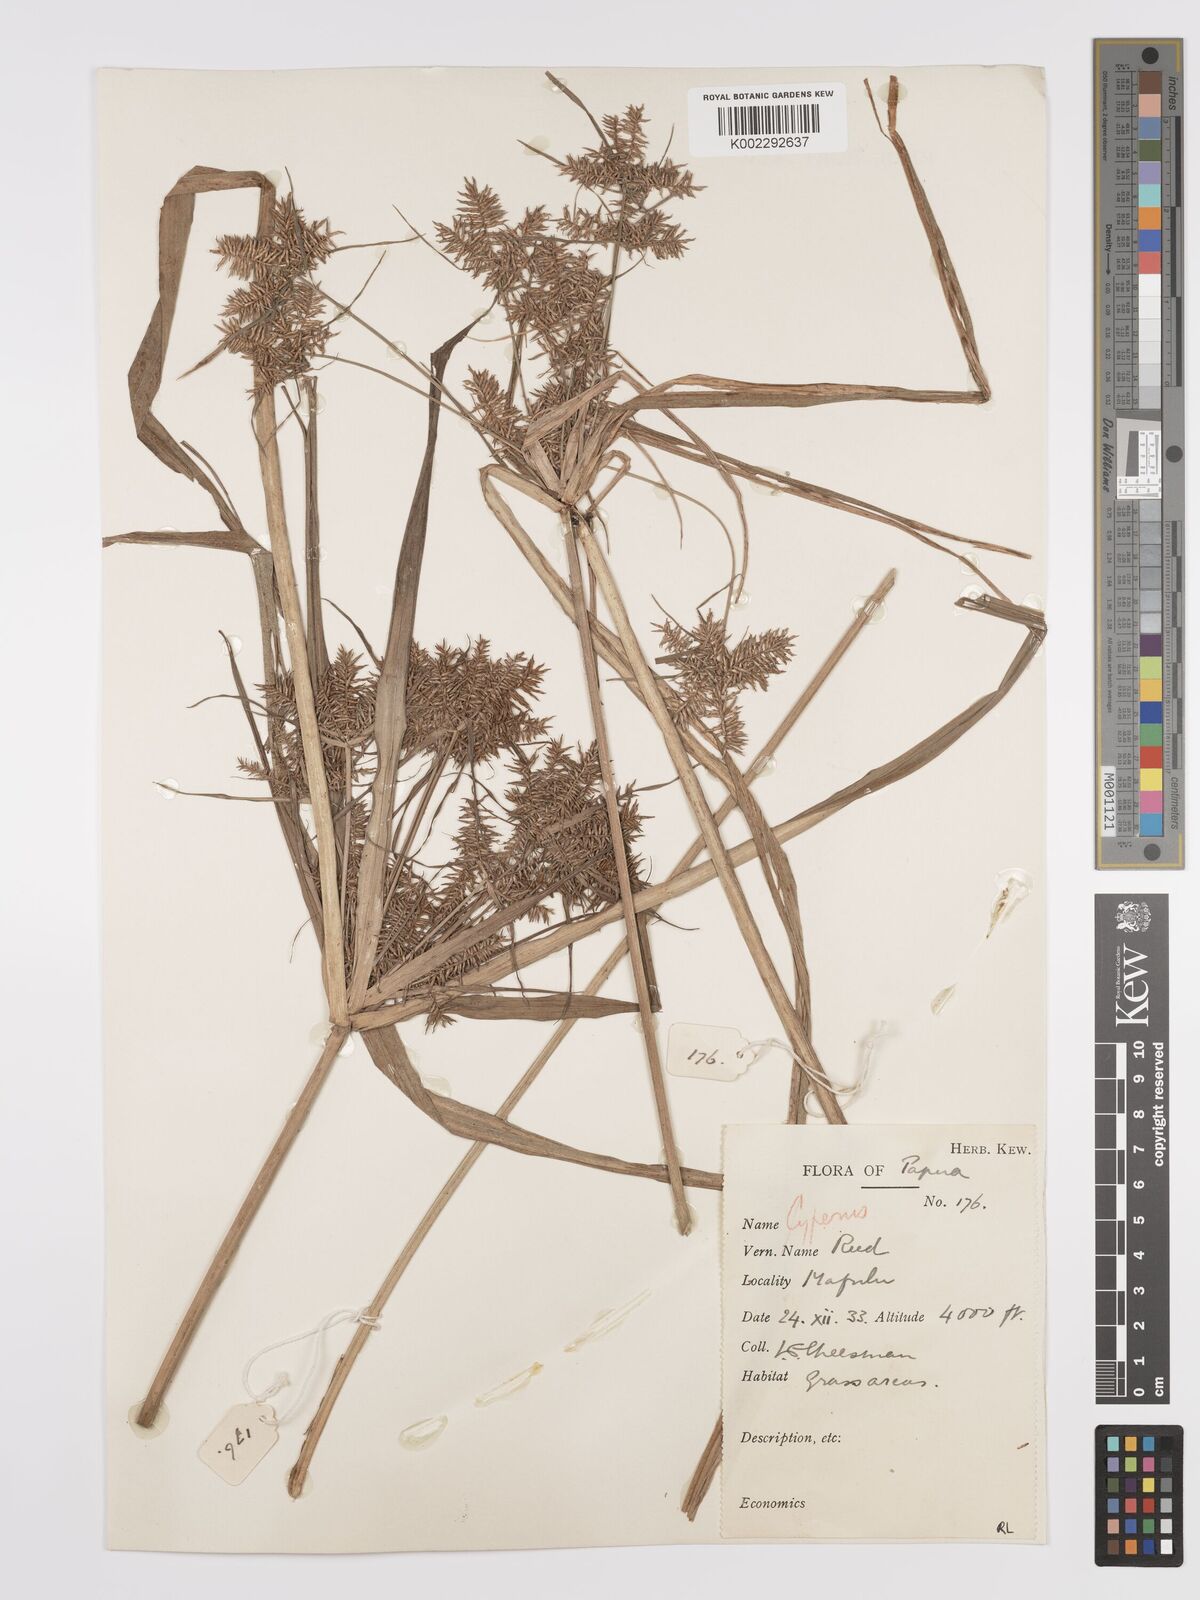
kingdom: Plantae
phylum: Tracheophyta
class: Liliopsida
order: Poales
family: Cyperaceae
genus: Cyperus
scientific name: Cyperus odoratus
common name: Fragrant flatsedge
